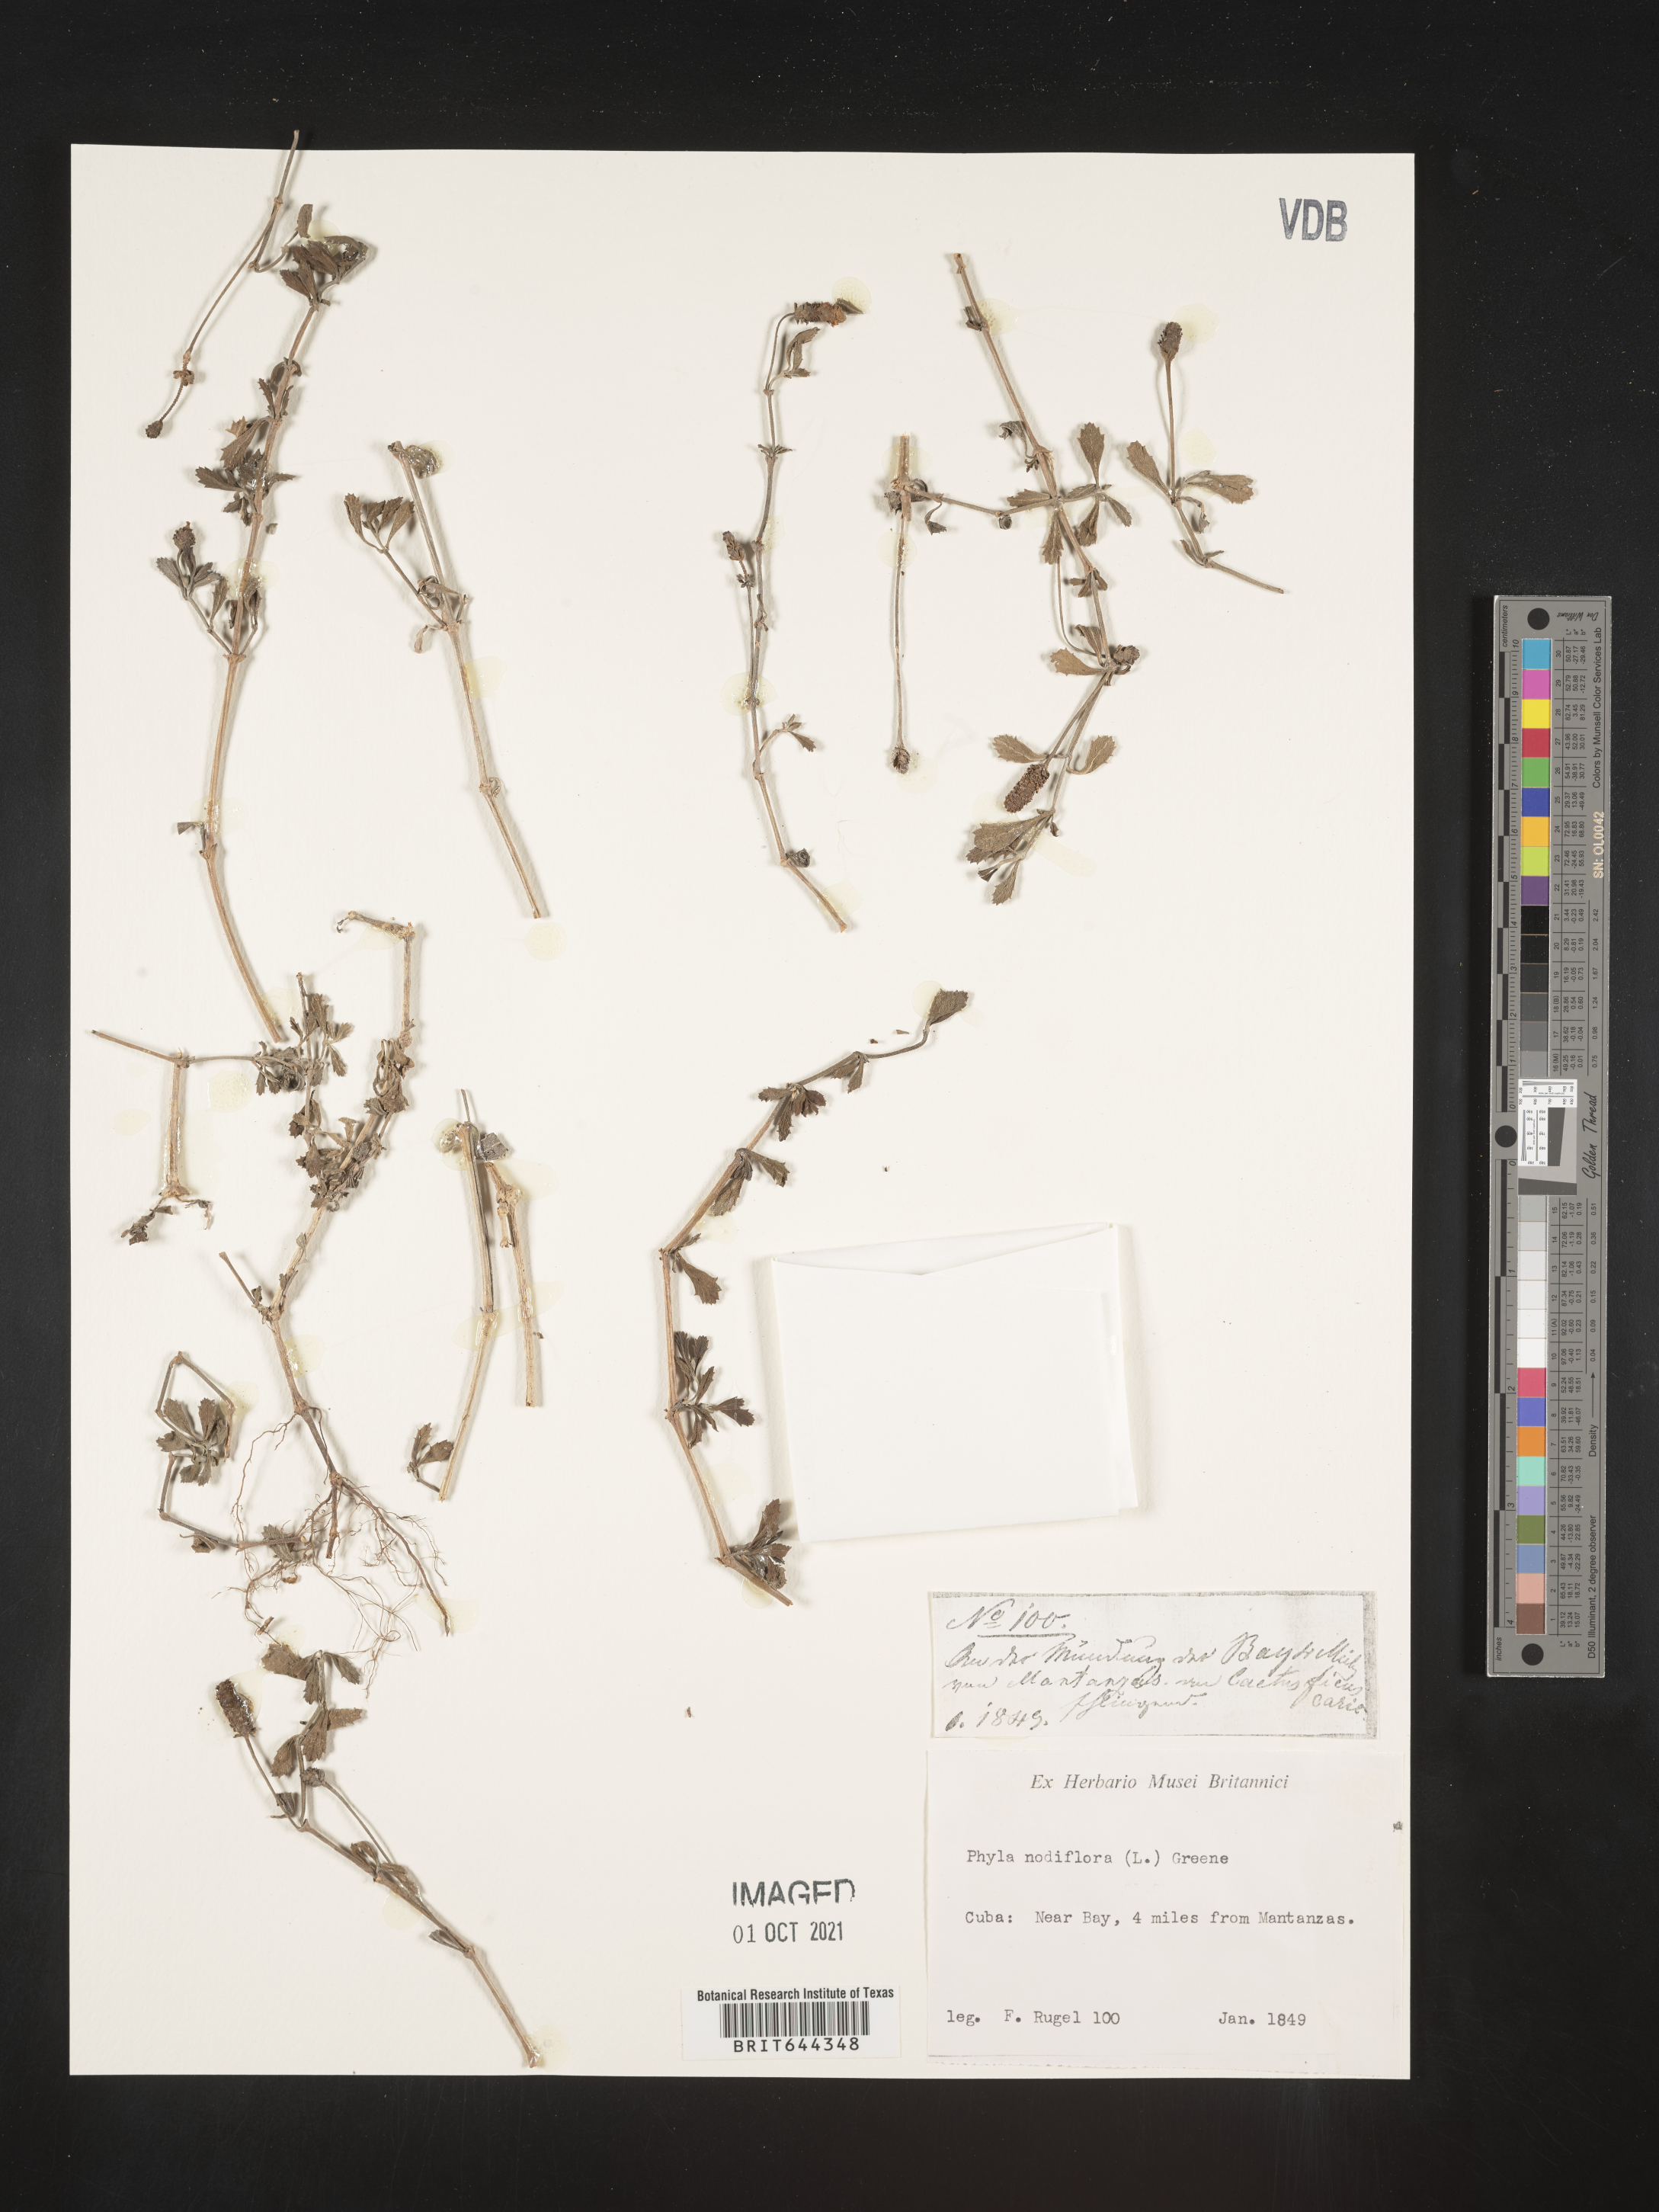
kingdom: Plantae
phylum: Tracheophyta
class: Magnoliopsida
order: Lamiales
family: Verbenaceae
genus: Phyla
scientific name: Phyla
